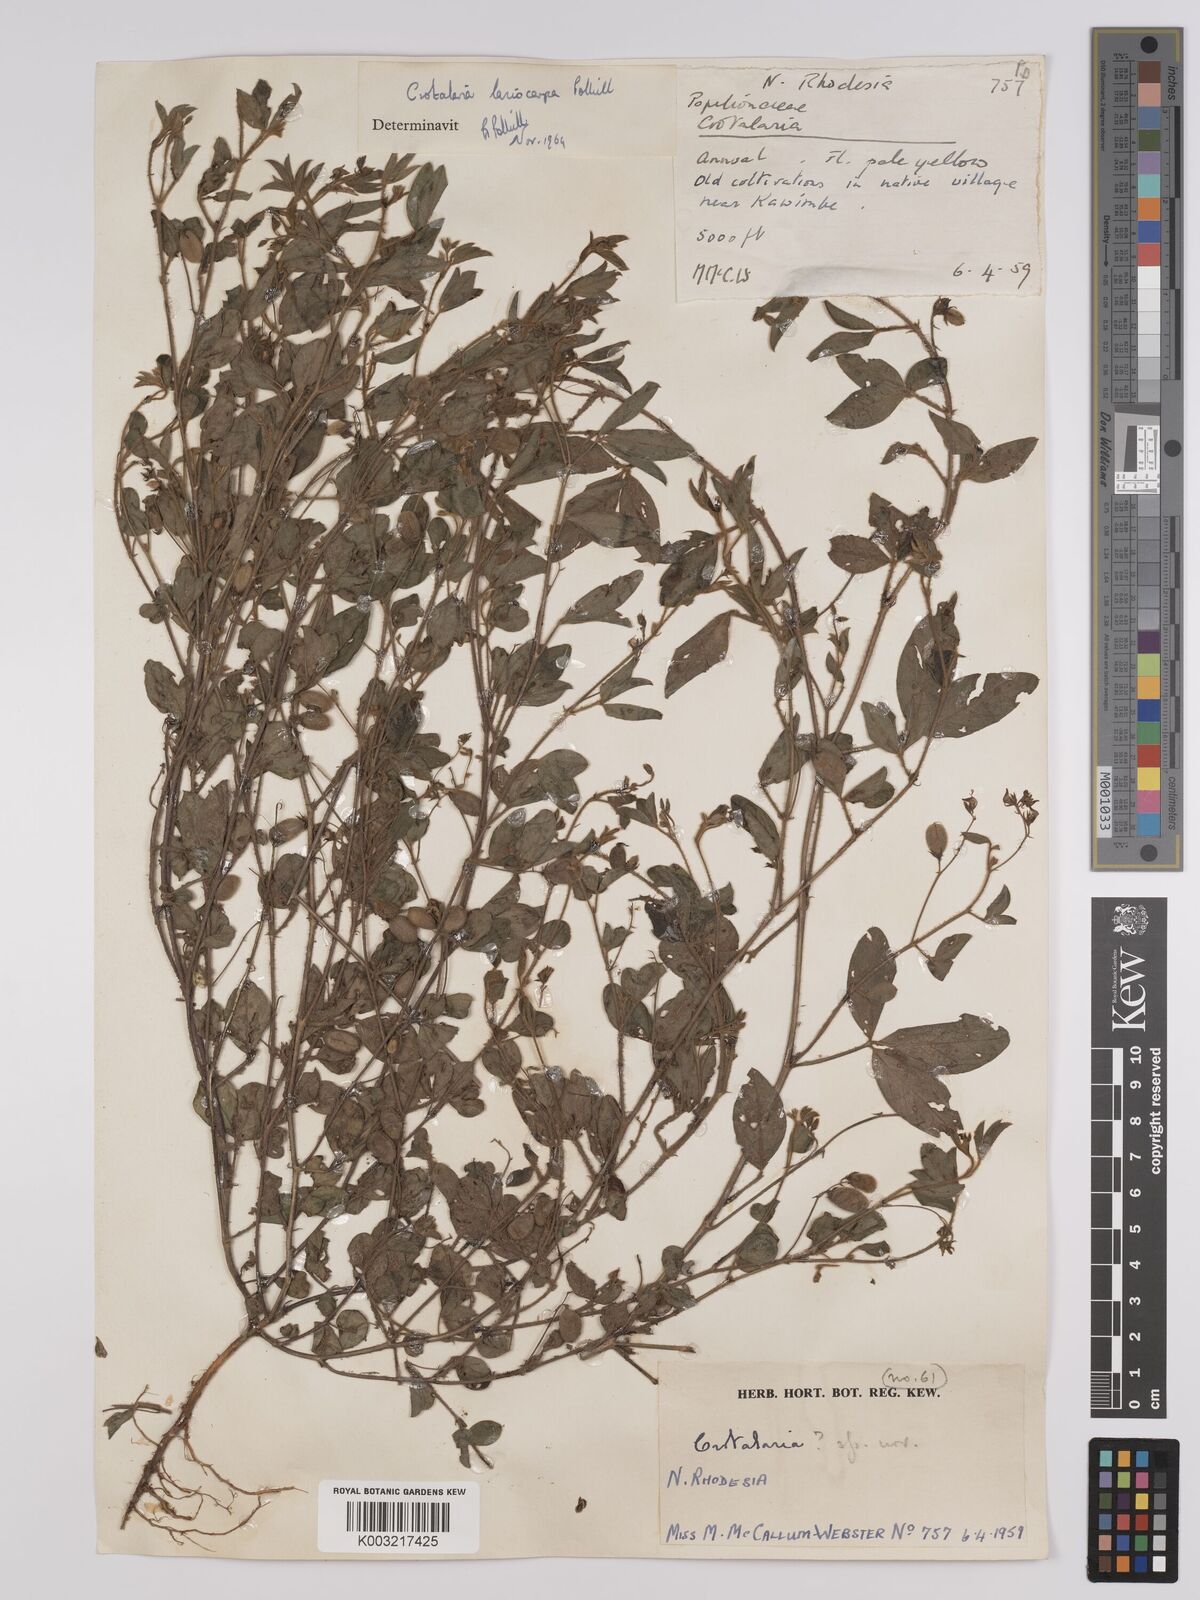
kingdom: Plantae
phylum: Tracheophyta
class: Magnoliopsida
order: Fabales
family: Fabaceae
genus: Crotalaria
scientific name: Crotalaria lasiocarpa
